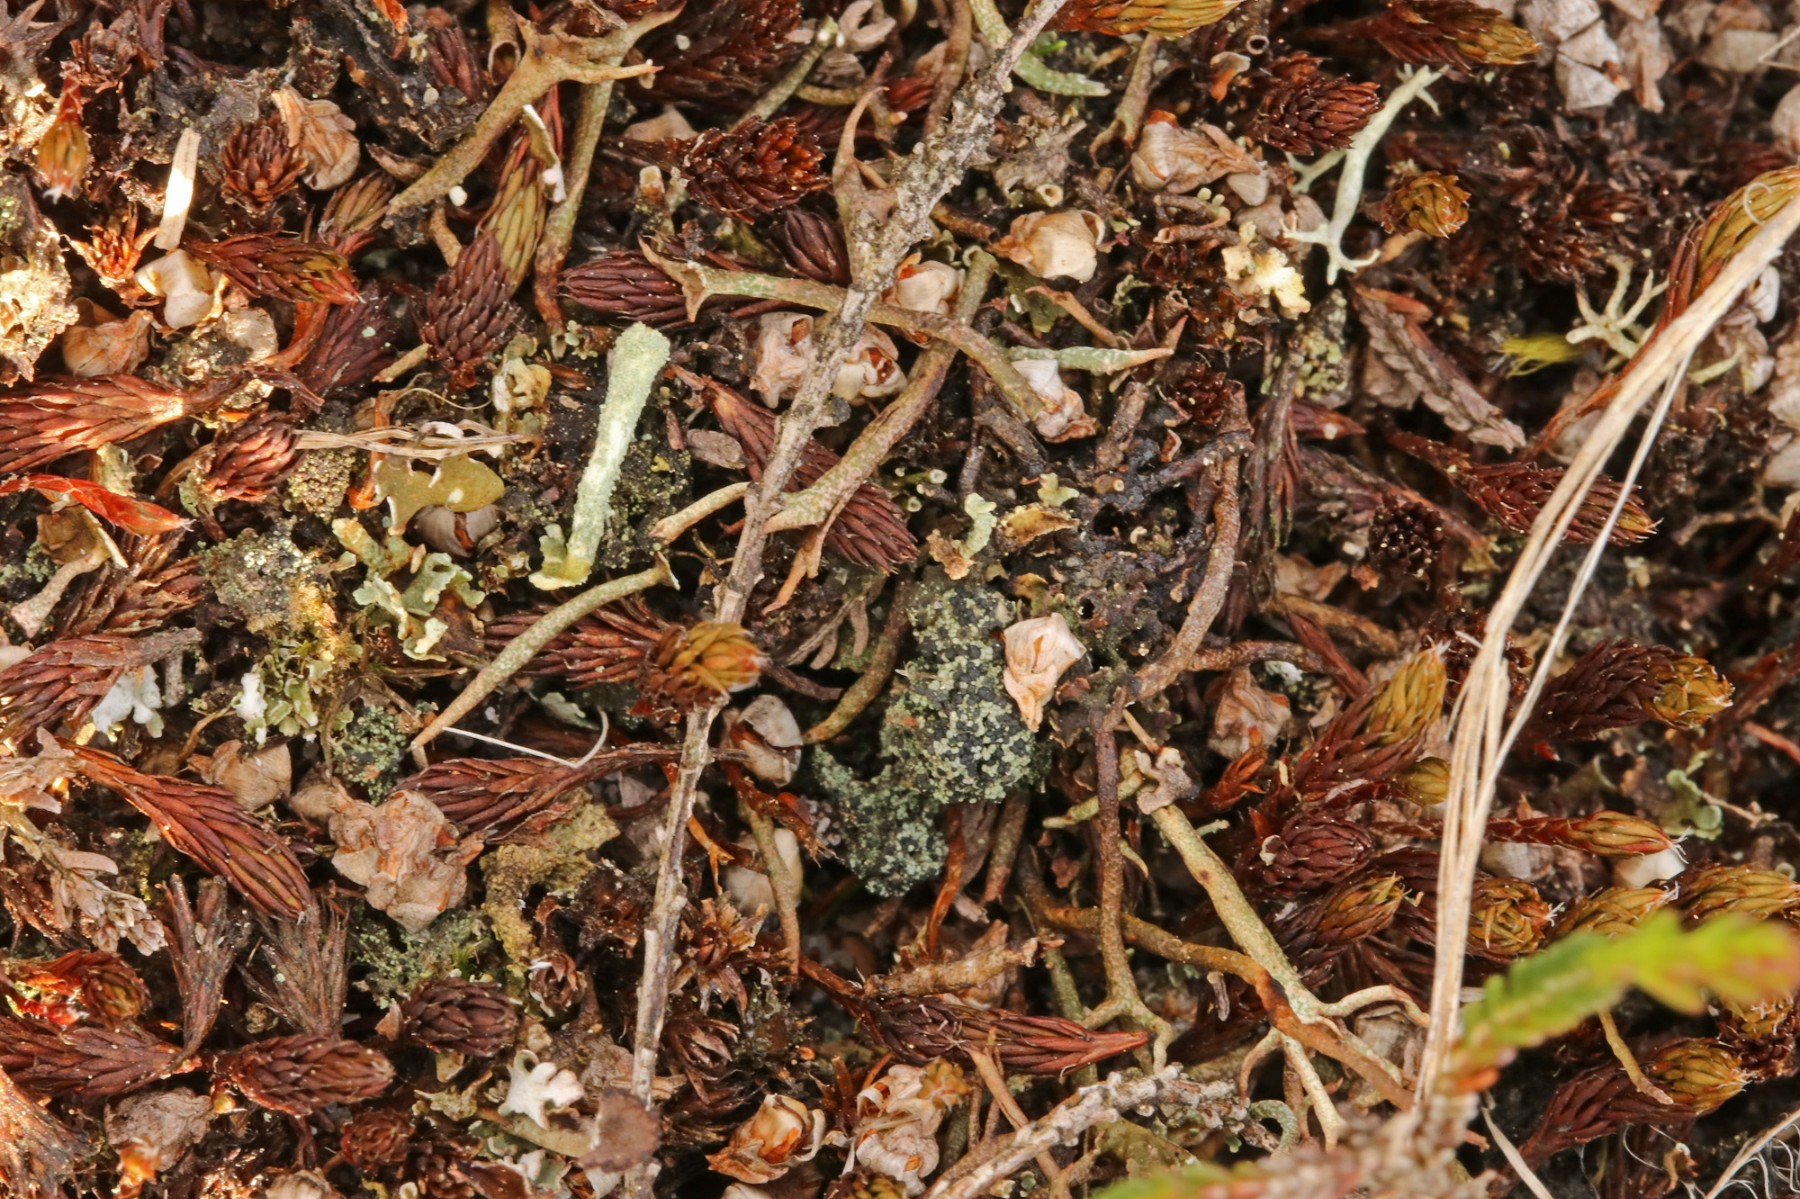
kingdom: Fungi
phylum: Ascomycota
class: Lecanoromycetes
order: Lecanorales
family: Byssolomataceae
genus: Micarea
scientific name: Micarea lignaria
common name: tørve-knaplav
